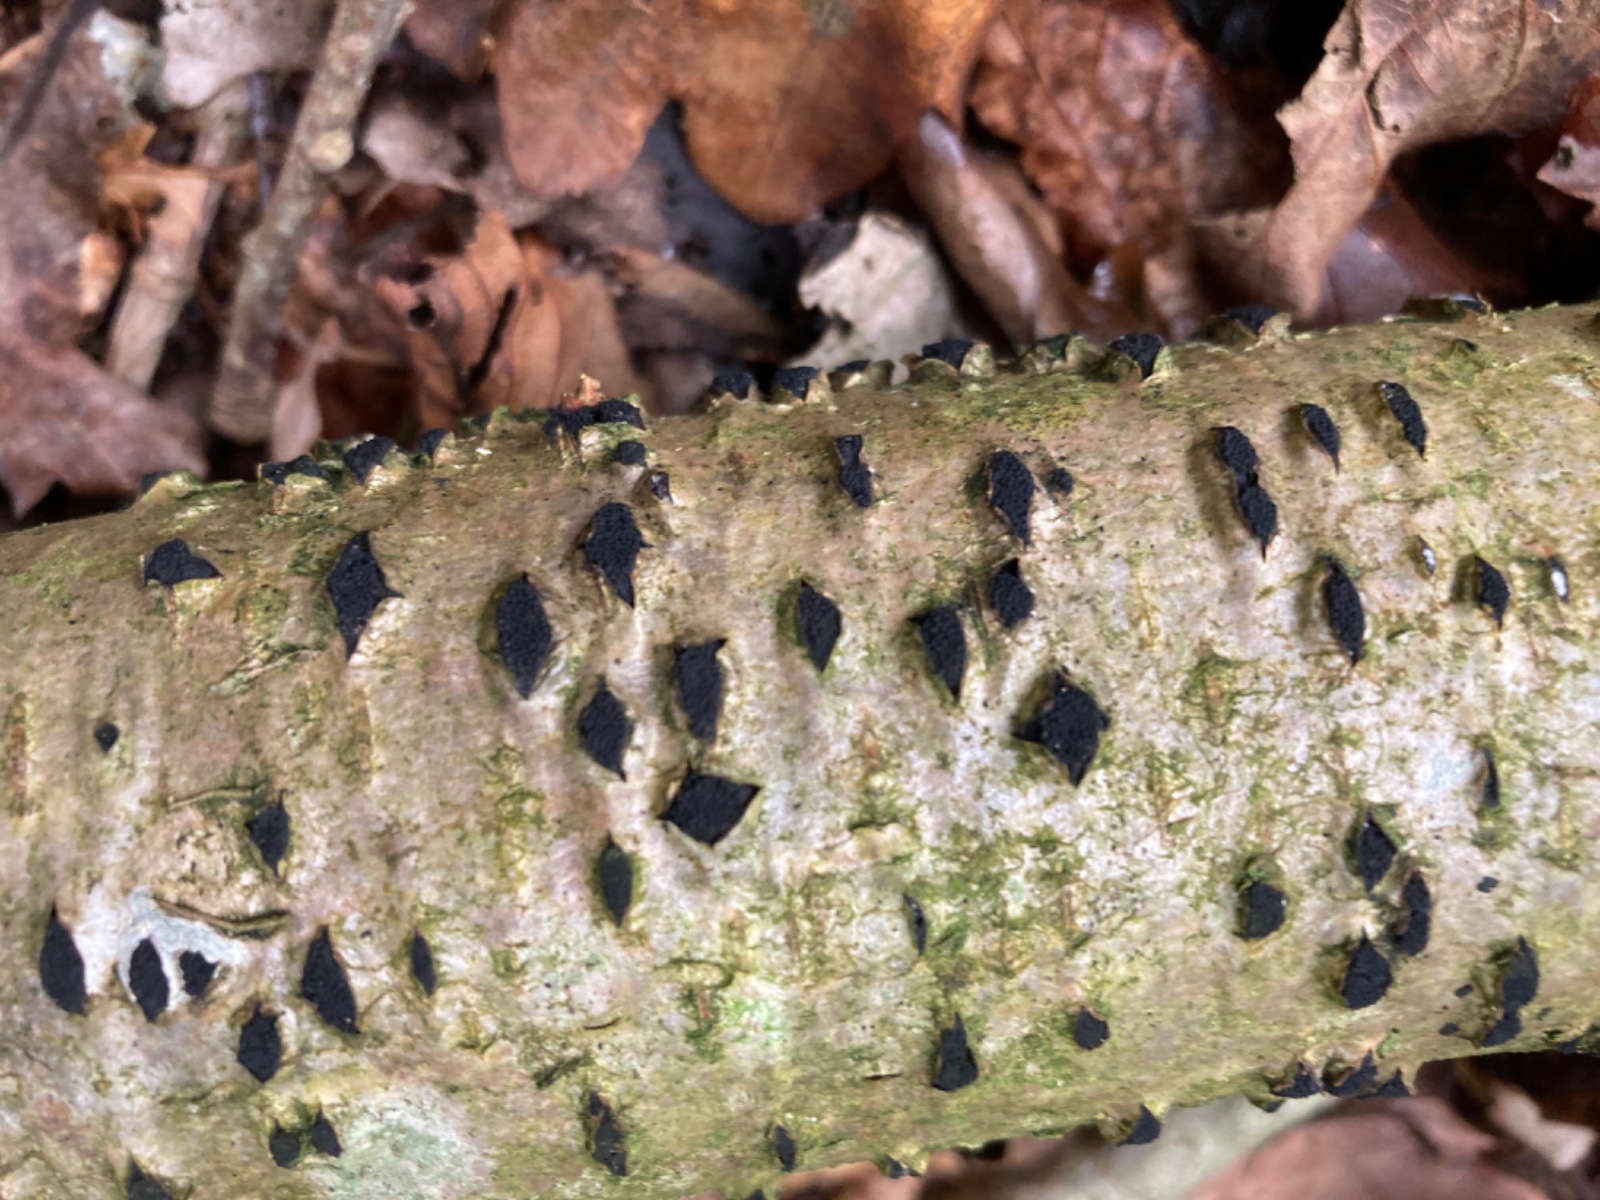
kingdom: Fungi
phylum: Ascomycota
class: Sordariomycetes
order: Xylariales
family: Diatrypaceae
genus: Eutypella
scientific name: Eutypella sorbi
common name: rønne-kulskorpe
